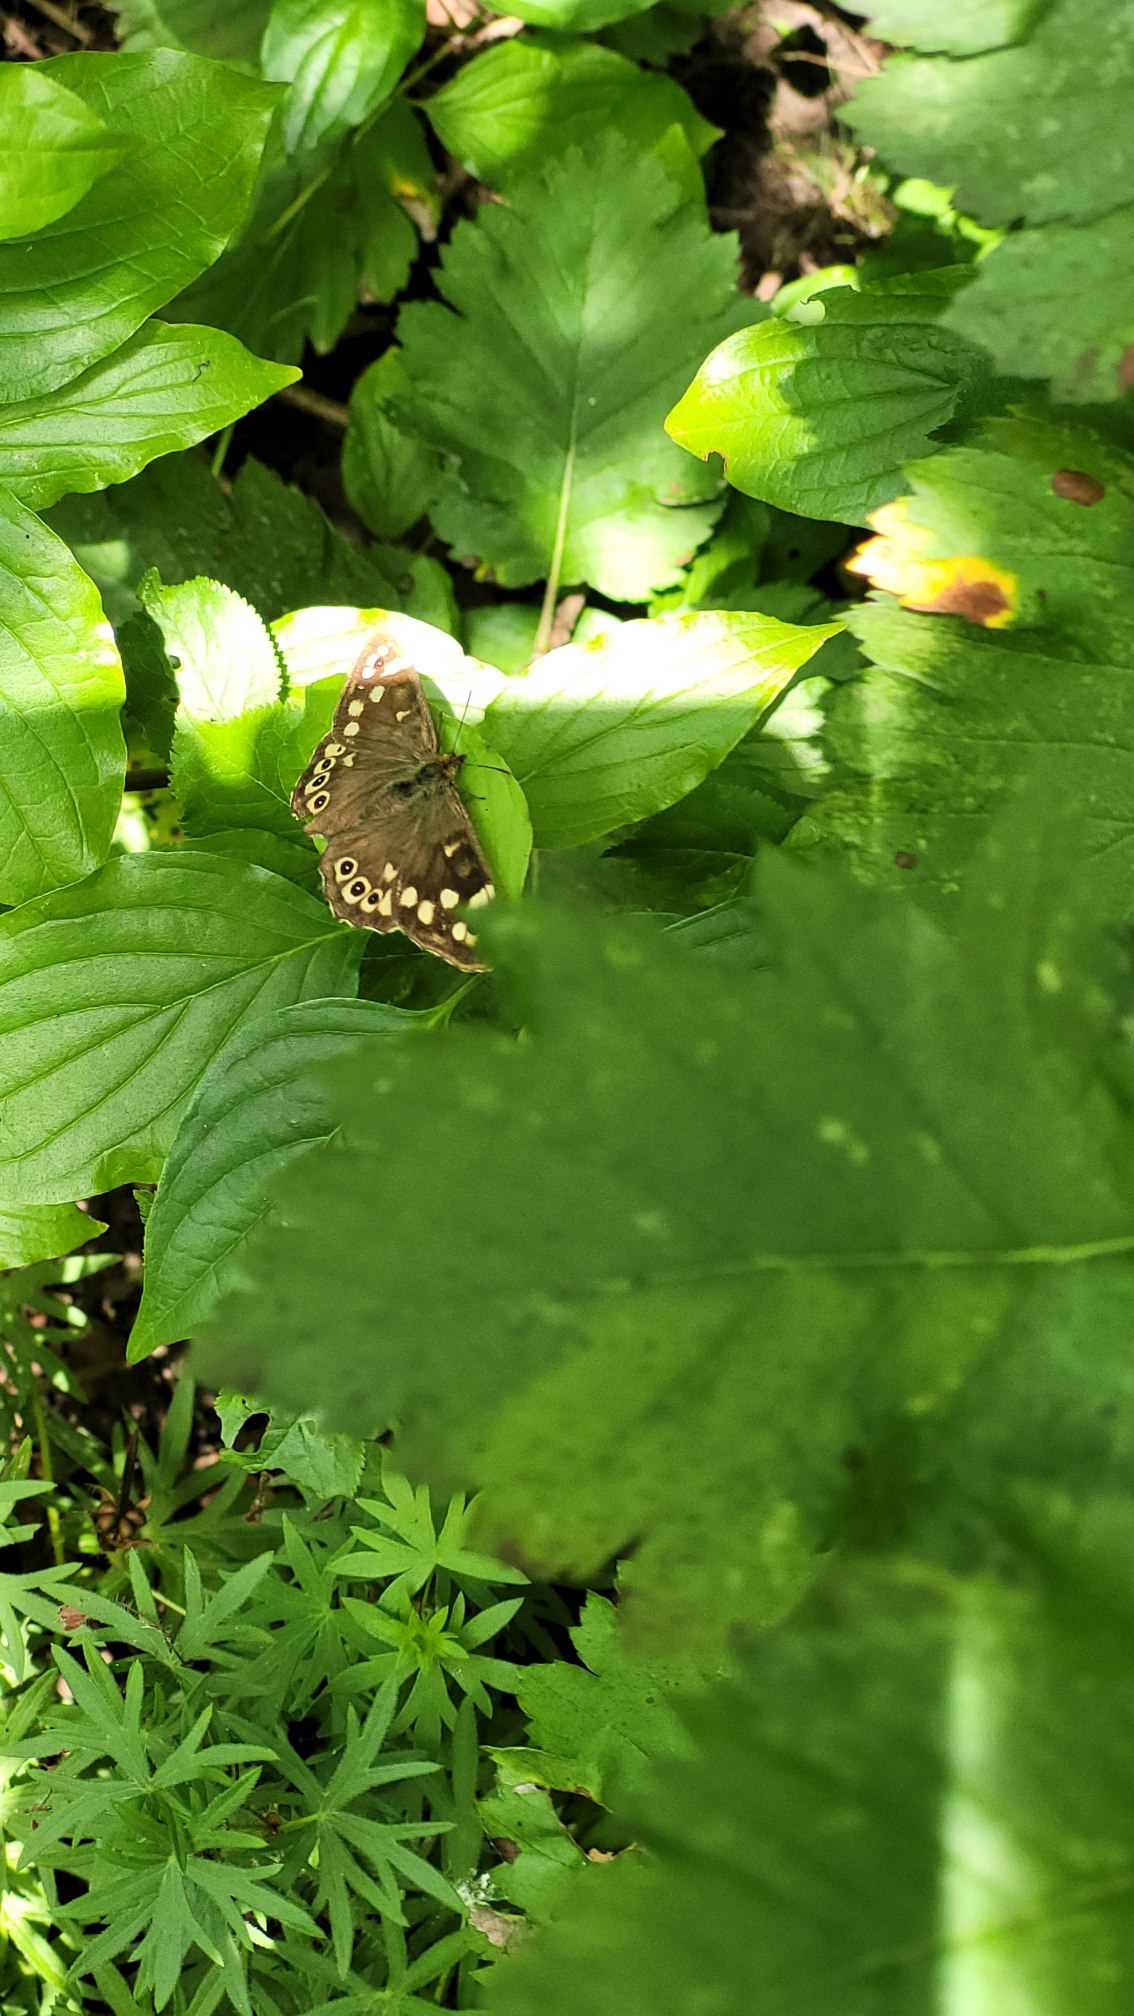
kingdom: Animalia
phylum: Arthropoda
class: Insecta
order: Lepidoptera
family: Nymphalidae
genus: Pararge
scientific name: Pararge aegeria
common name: Skovrandøje
